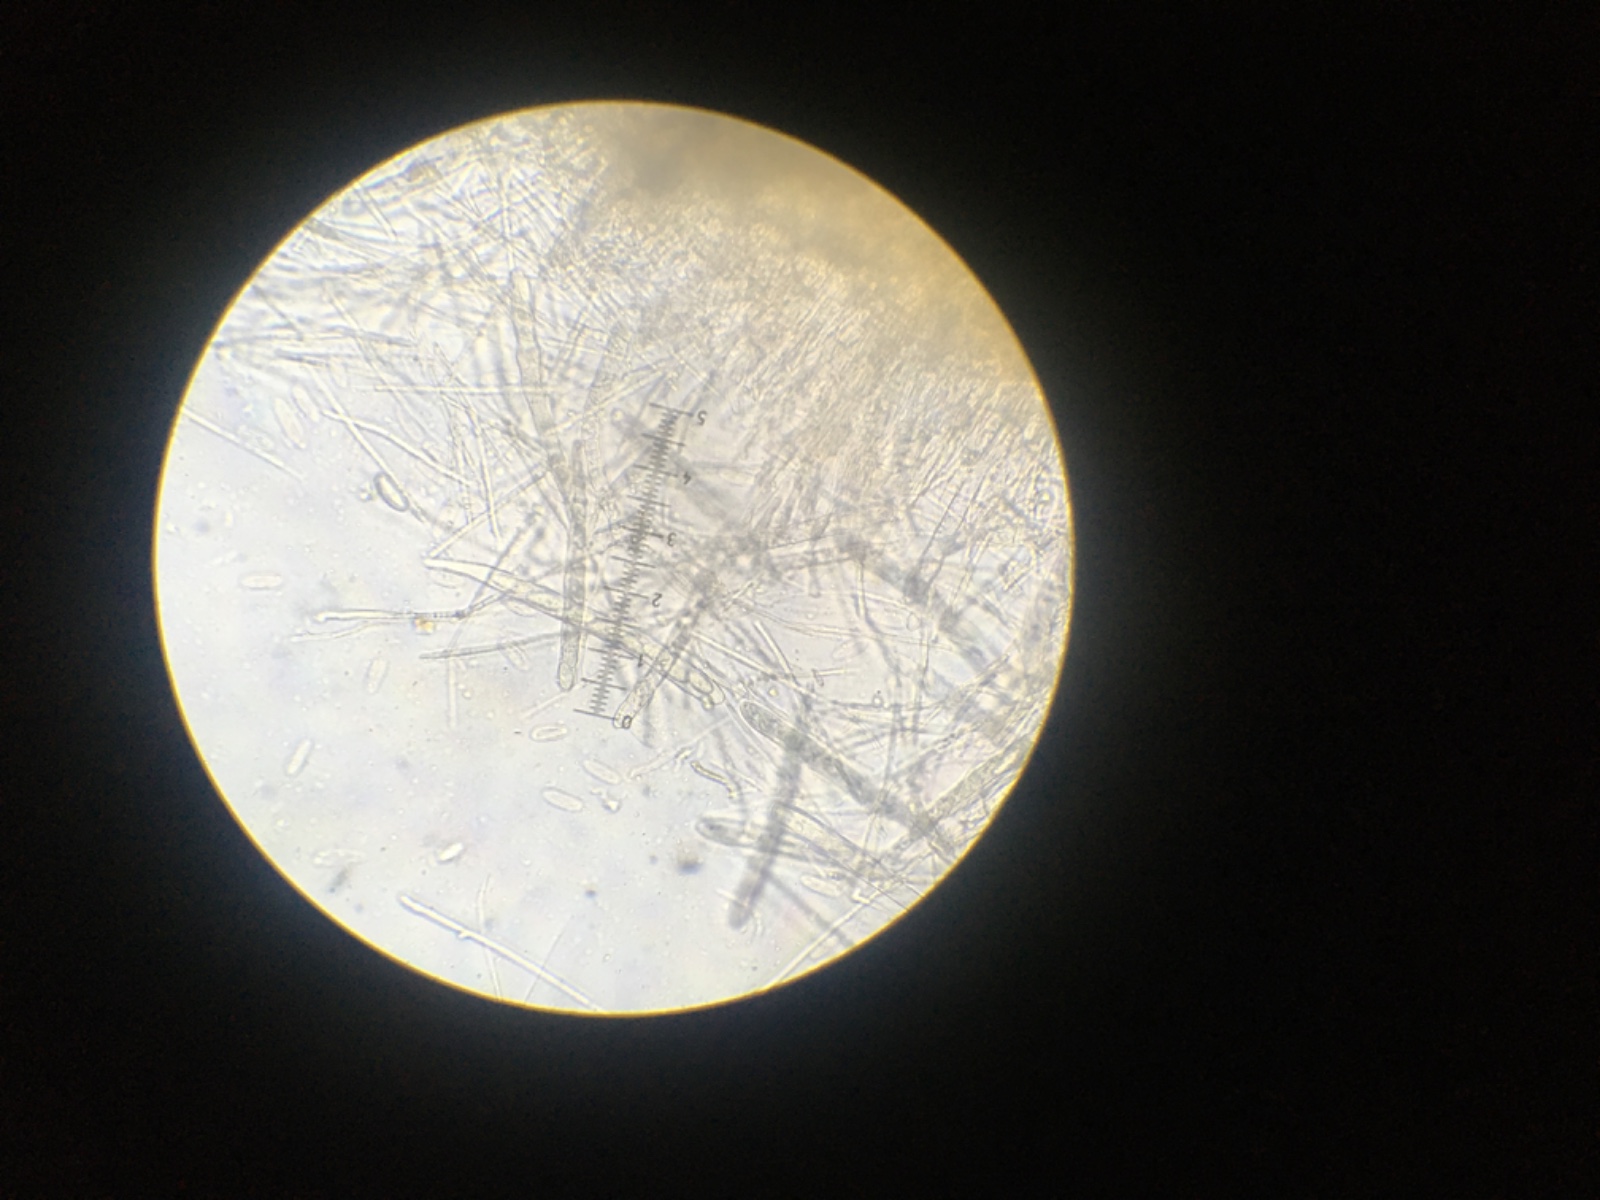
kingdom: Fungi
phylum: Ascomycota
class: Leotiomycetes
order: Helotiales
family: Lachnaceae
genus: Lachnellula
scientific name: Lachnellula occidentalis
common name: Larch disco
